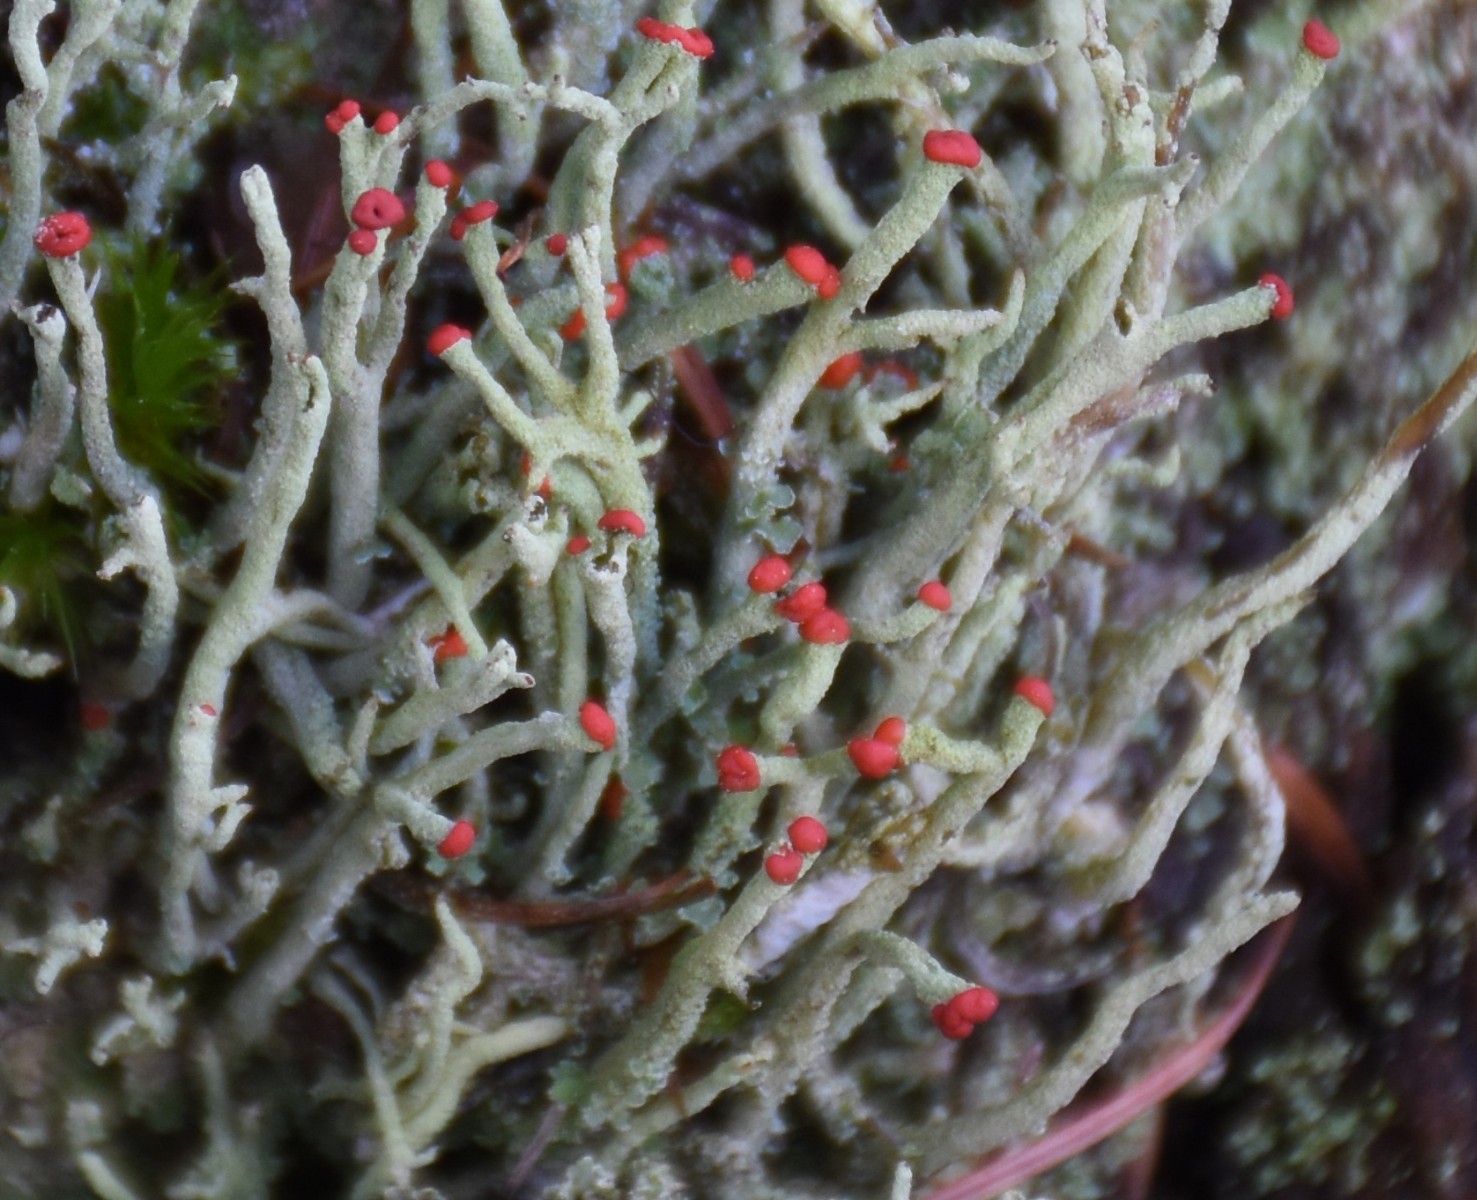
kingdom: Fungi
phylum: Ascomycota
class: Lecanoromycetes
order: Lecanorales
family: Cladoniaceae
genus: Cladonia
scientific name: Cladonia macilenta
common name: indsvunden bægerlav
